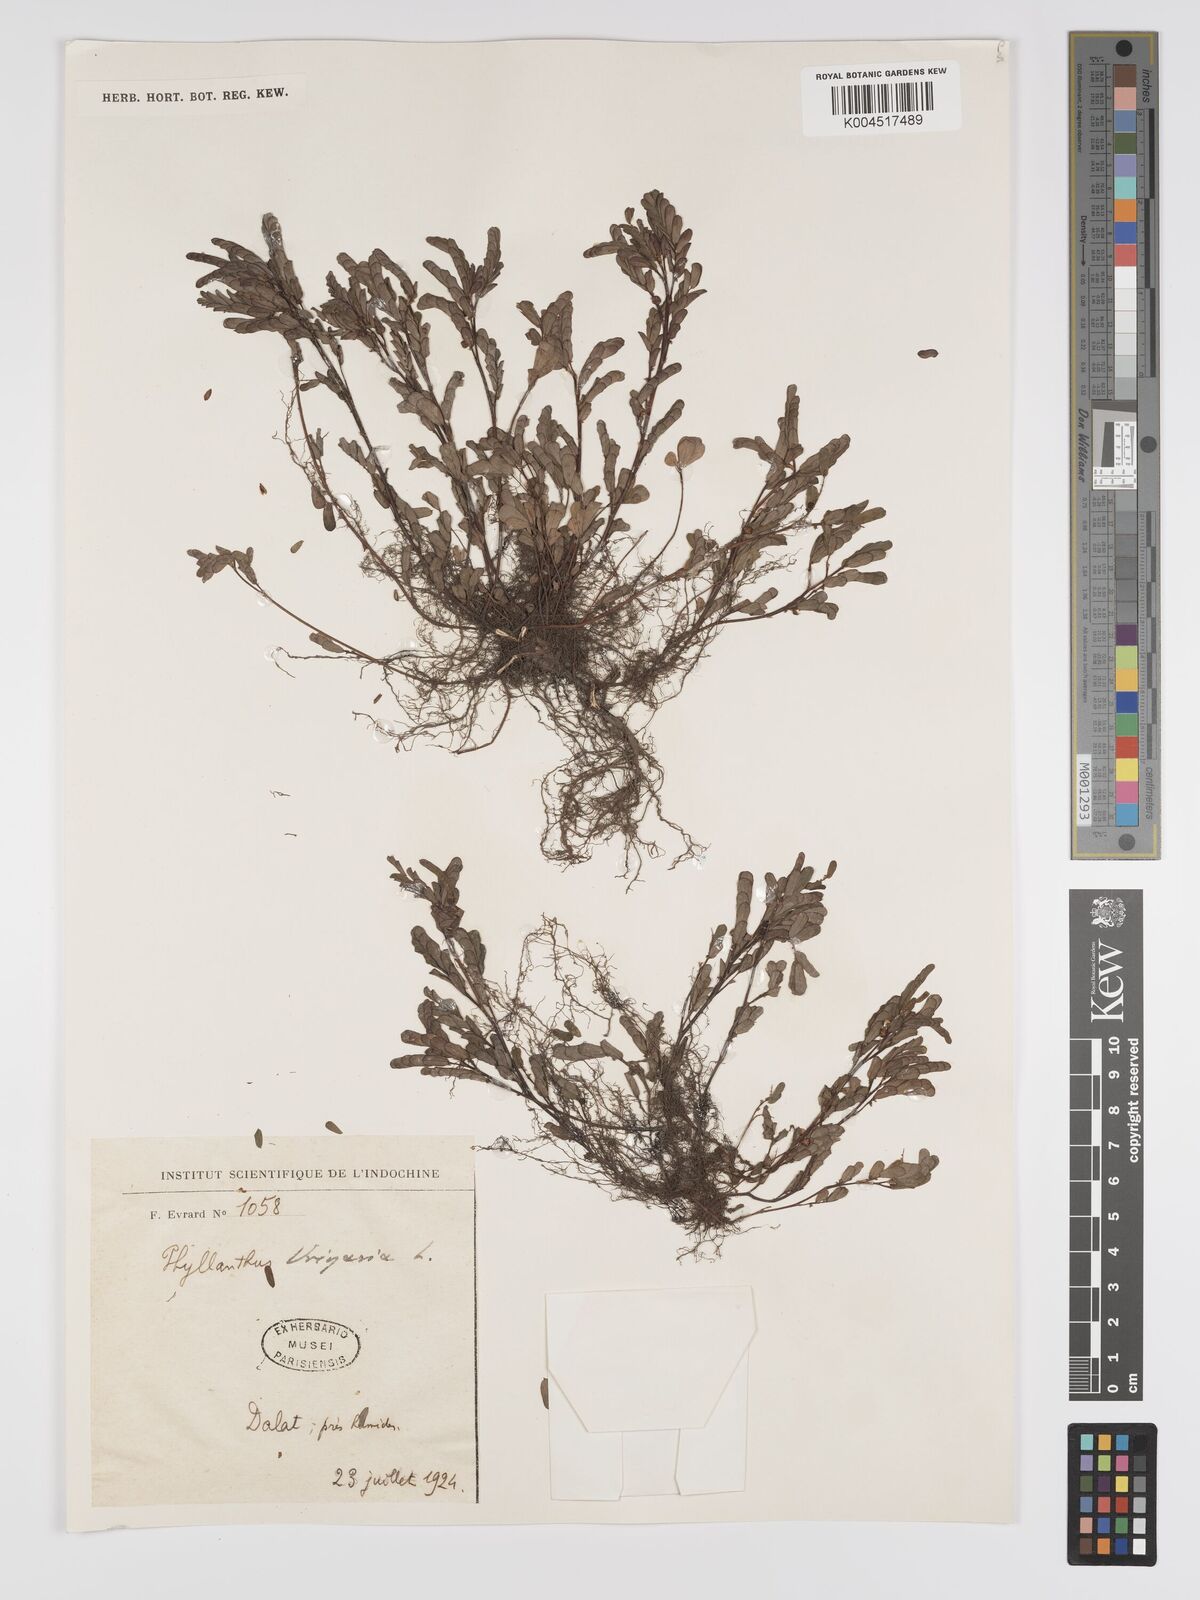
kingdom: Plantae
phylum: Tracheophyta
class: Magnoliopsida
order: Malpighiales
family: Phyllanthaceae
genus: Phyllanthus
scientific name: Phyllanthus urinaria
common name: Chamber bitter
